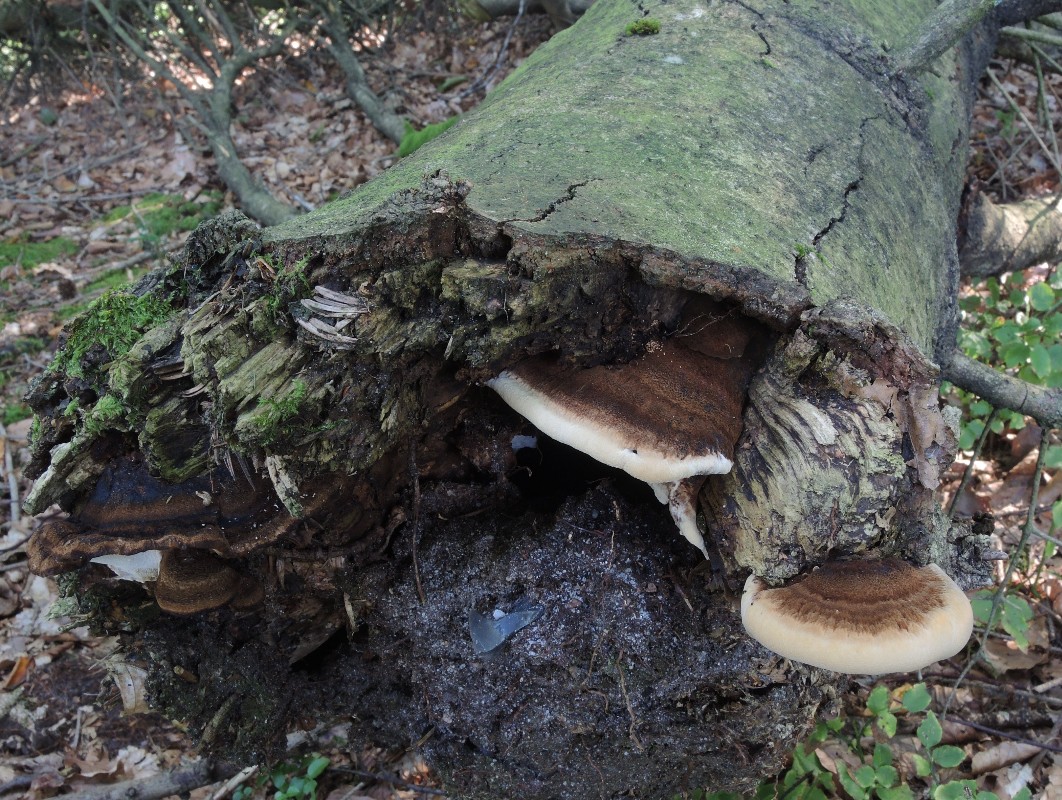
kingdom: Fungi
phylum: Basidiomycota
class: Agaricomycetes
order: Polyporales
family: Ischnodermataceae
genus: Ischnoderma
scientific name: Ischnoderma benzoinum
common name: gran-tjæreporesvamp
